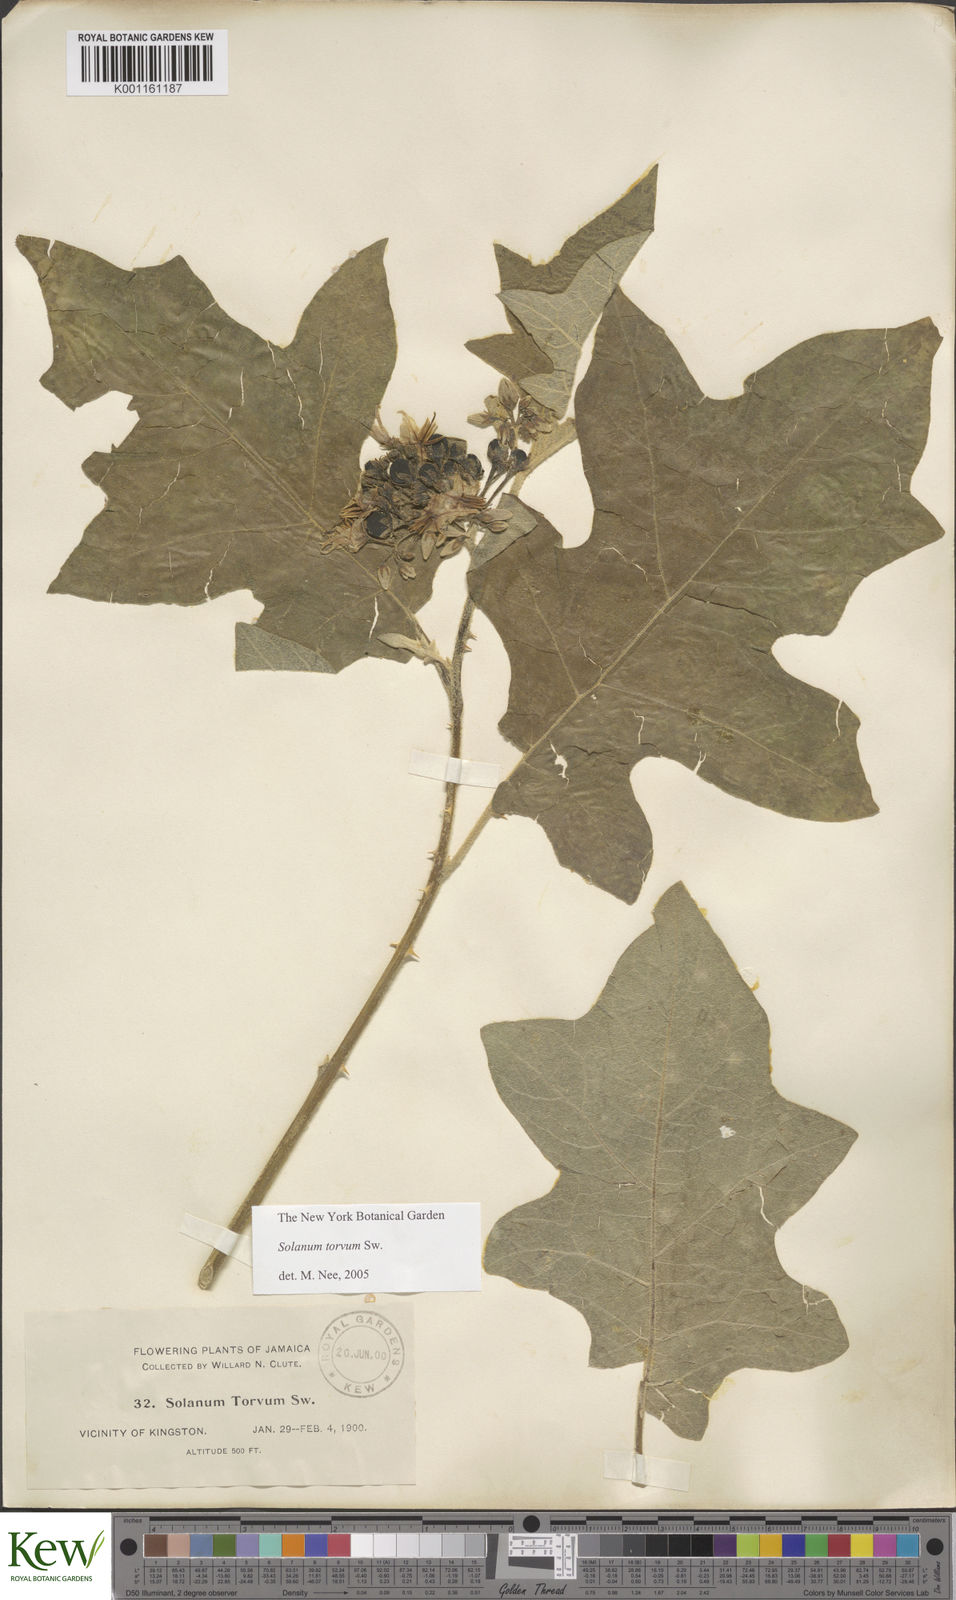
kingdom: Plantae
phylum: Tracheophyta
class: Magnoliopsida
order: Solanales
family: Solanaceae
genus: Solanum
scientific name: Solanum torvum
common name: Turkey berry
